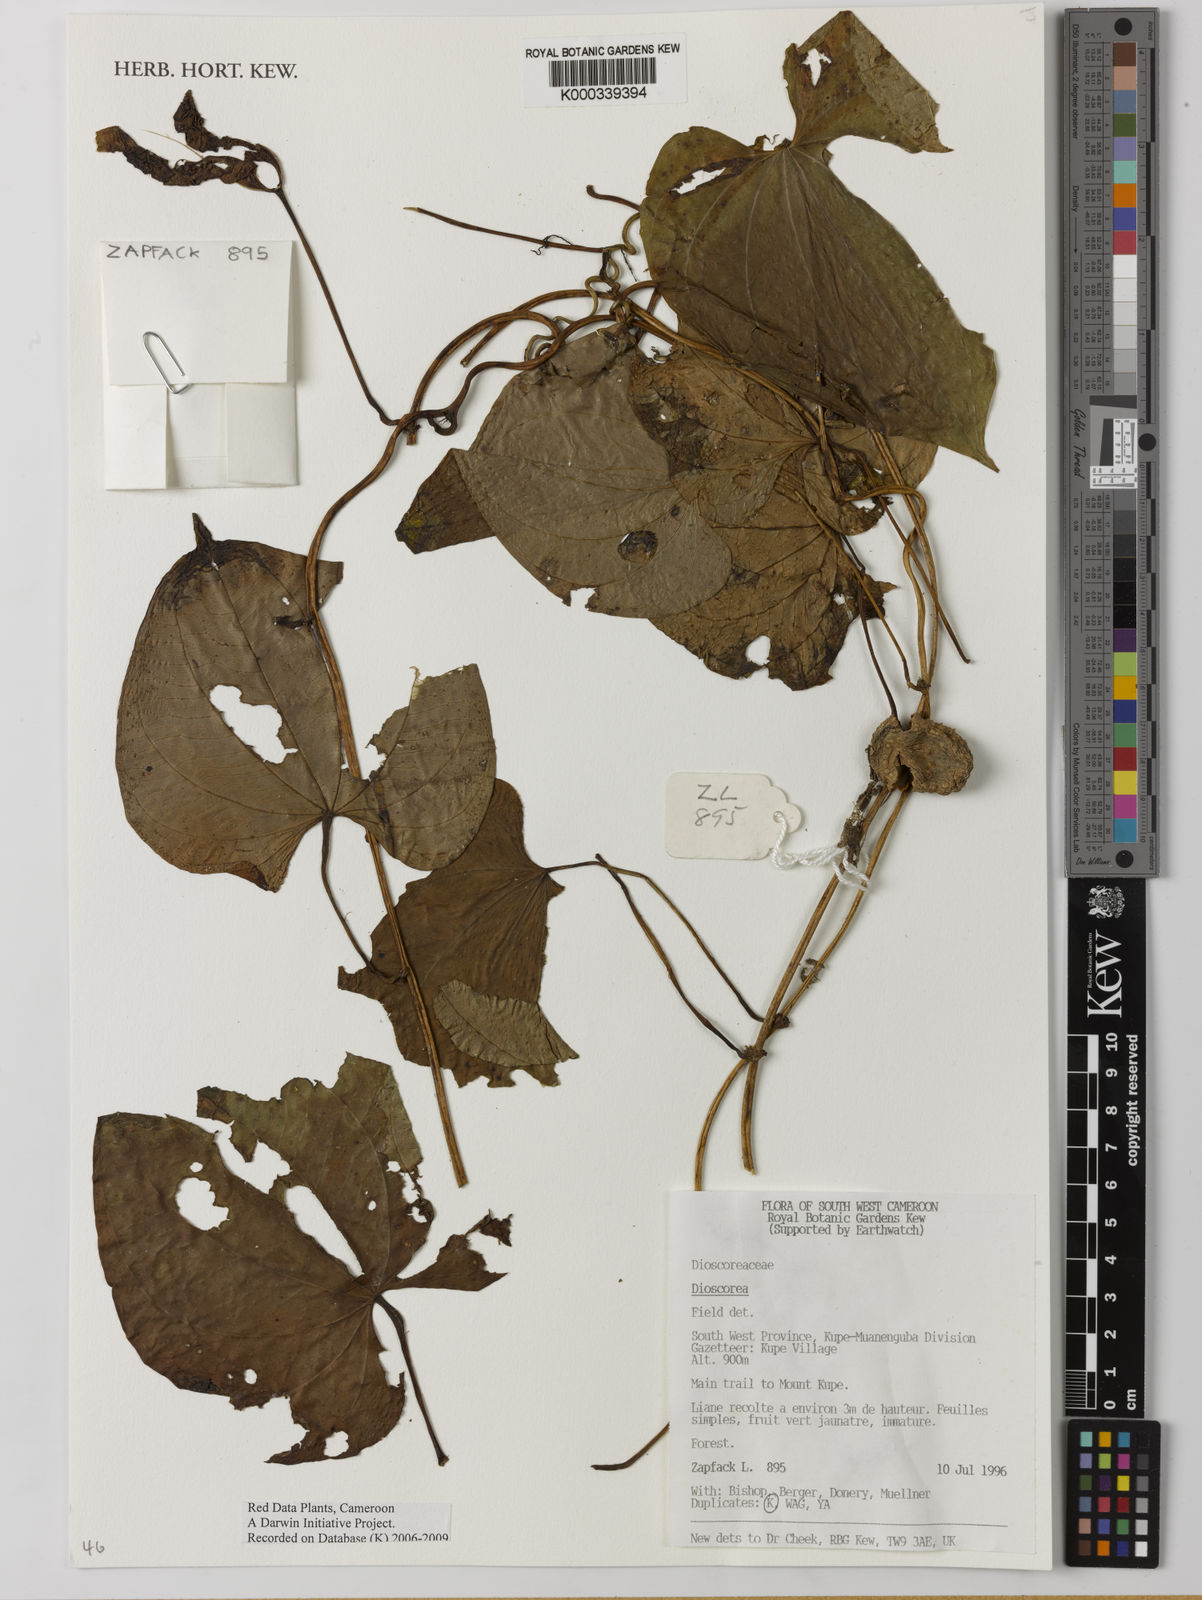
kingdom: Plantae
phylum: Tracheophyta
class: Liliopsida
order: Dioscoreales
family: Dioscoreaceae
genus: Dioscorea
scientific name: Dioscorea
